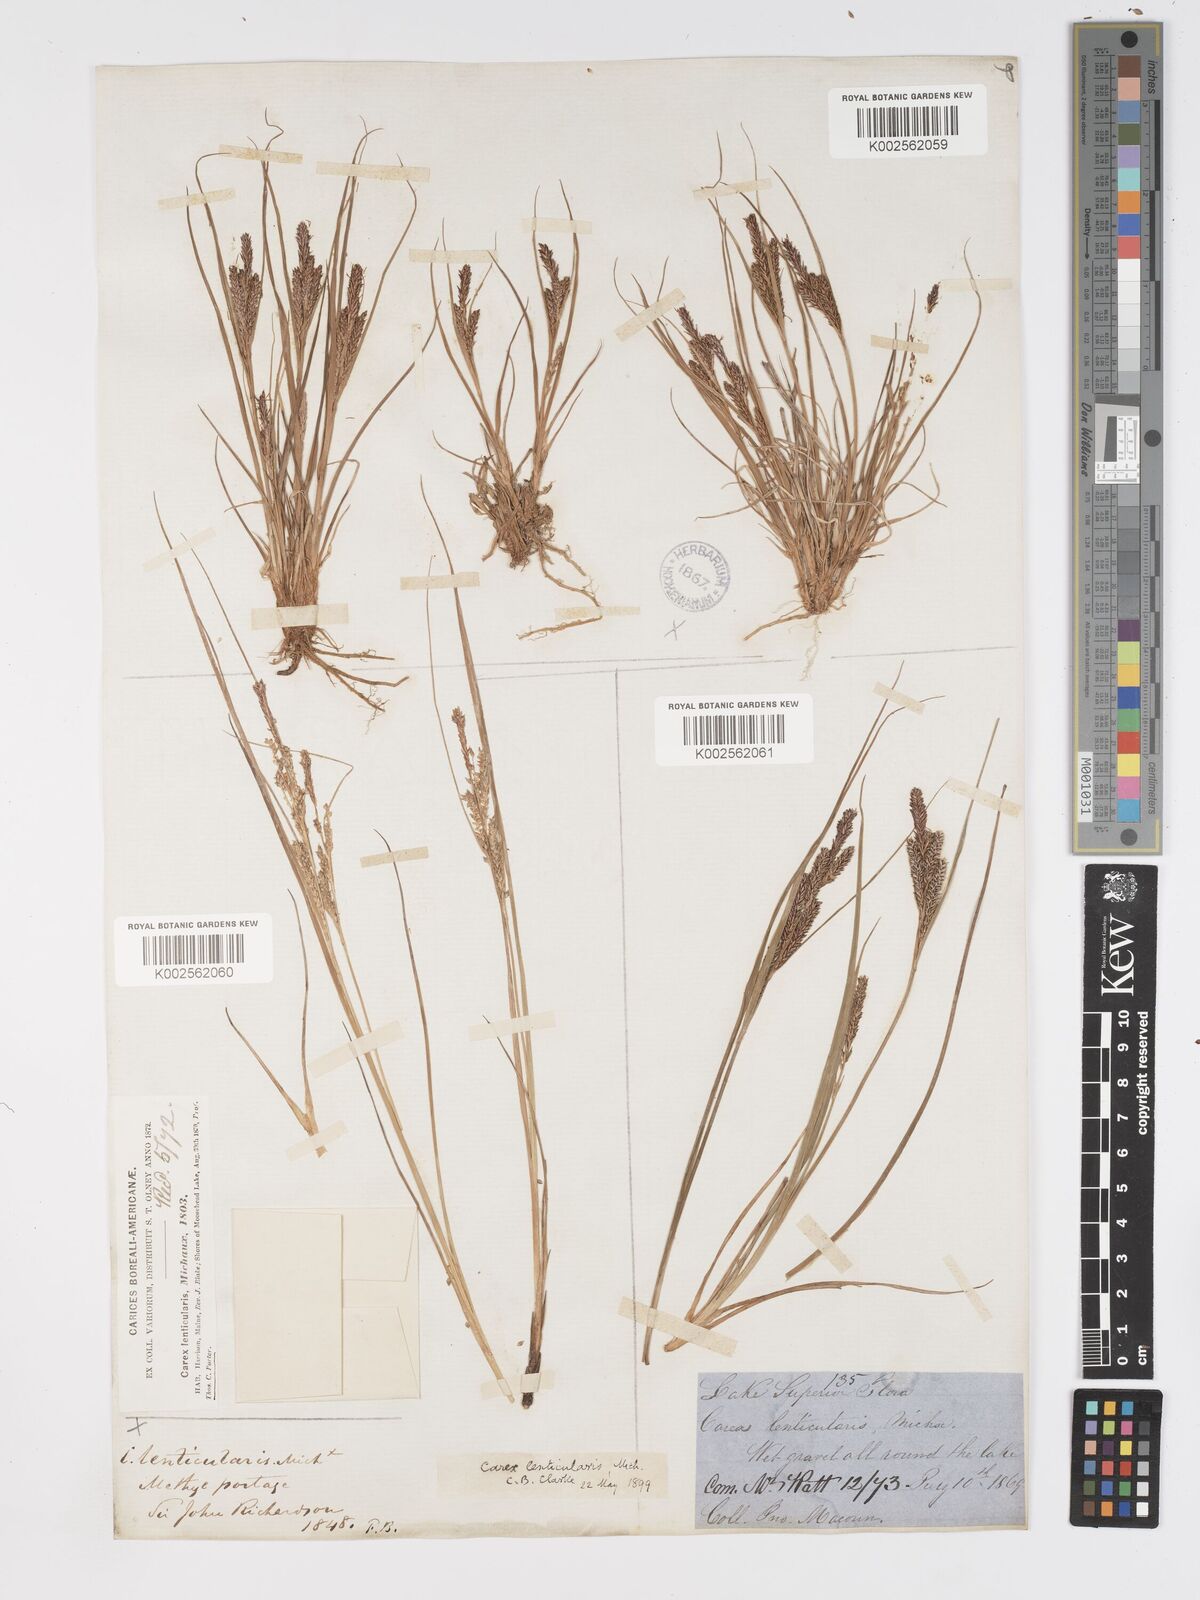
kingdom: Plantae
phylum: Tracheophyta
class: Liliopsida
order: Poales
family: Cyperaceae
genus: Carex
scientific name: Carex lenticularis
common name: Lakeshore sedge
